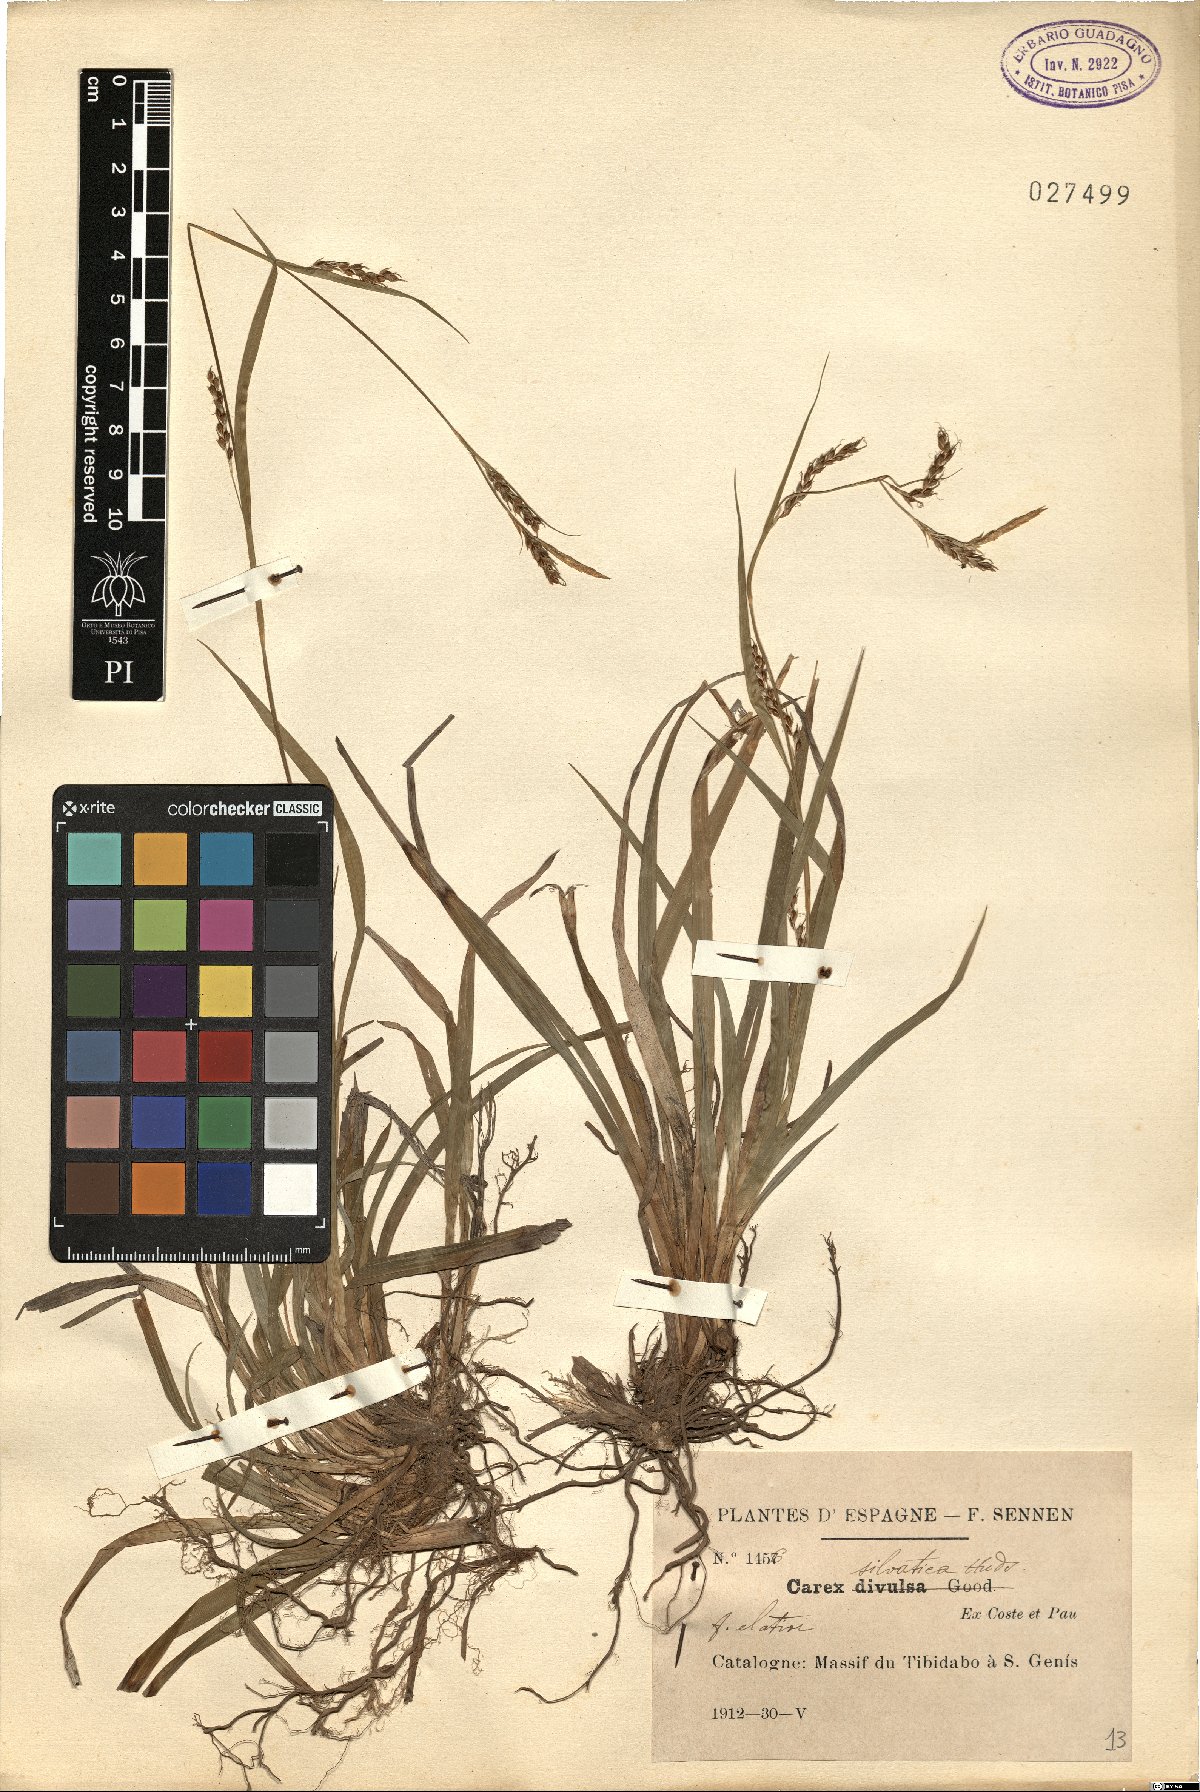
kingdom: Plantae
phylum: Tracheophyta
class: Liliopsida
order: Poales
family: Cyperaceae
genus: Carex
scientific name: Carex sylvatica
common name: Wood-sedge
